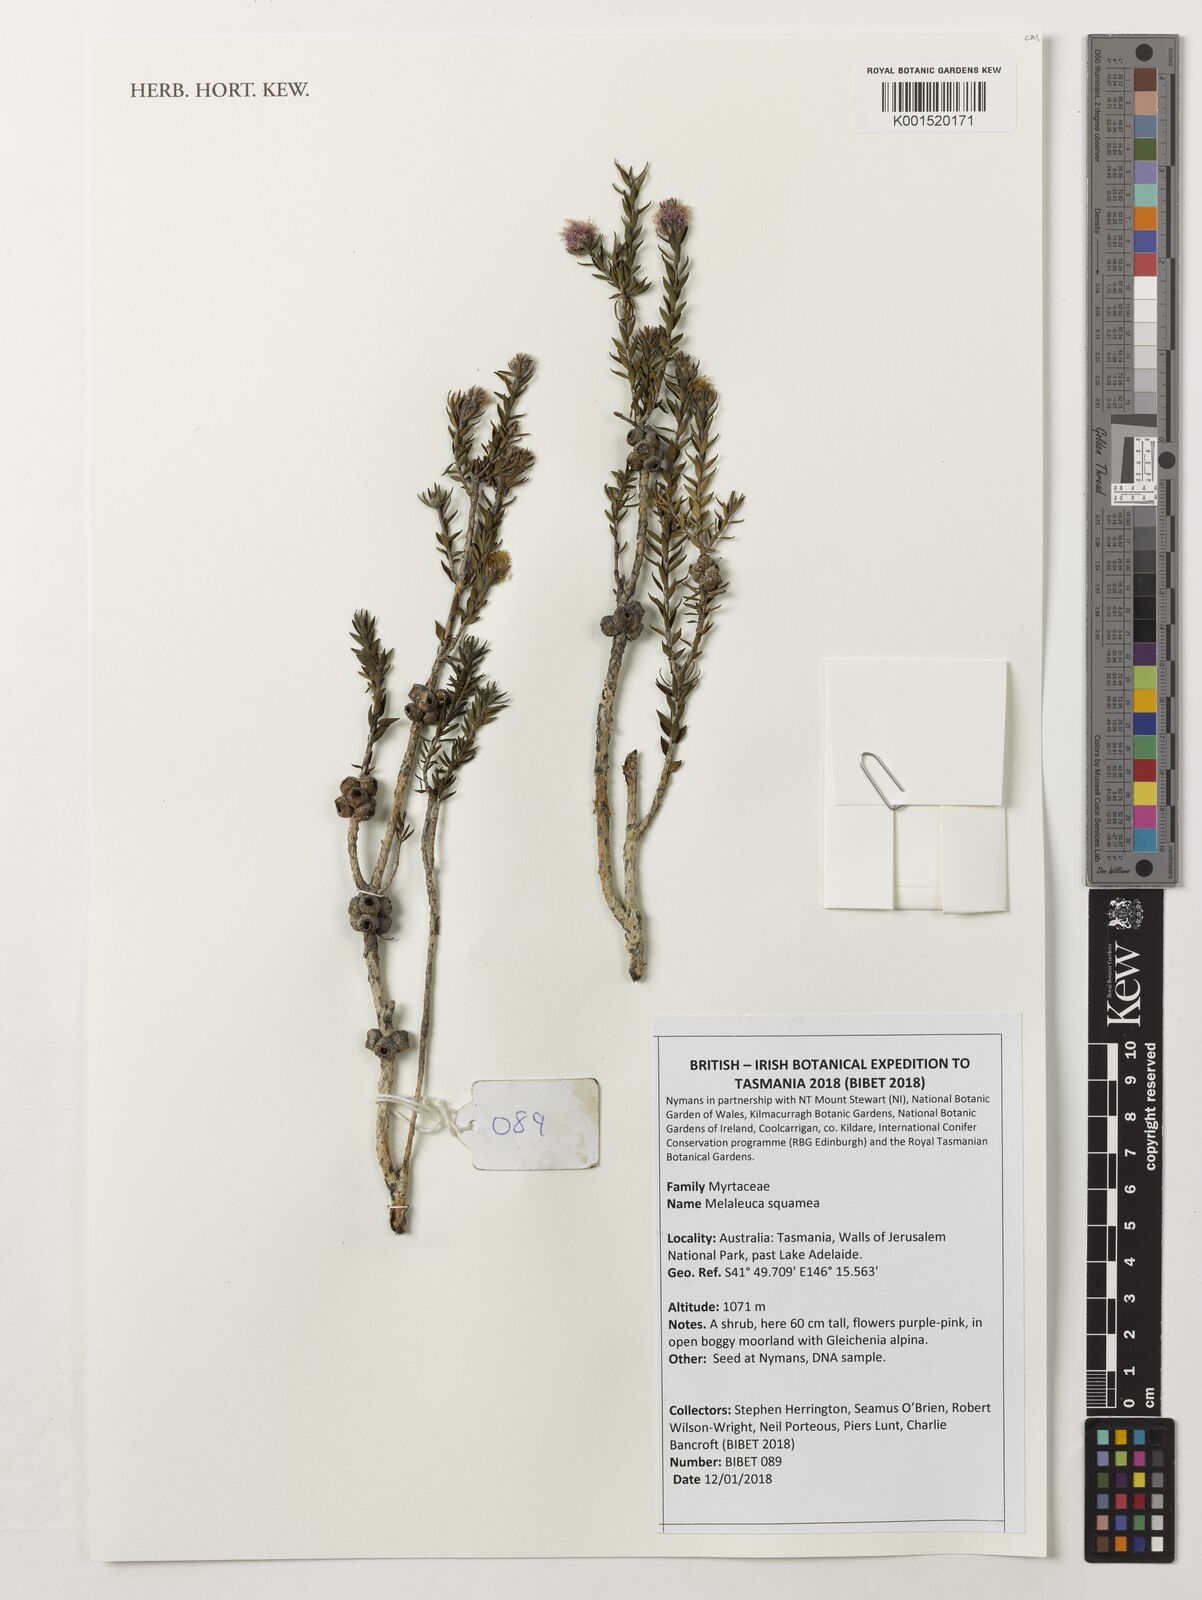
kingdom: Plantae
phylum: Tracheophyta
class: Magnoliopsida
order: Myrtales
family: Myrtaceae
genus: Melaleuca
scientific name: Melaleuca squamea
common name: Swamp melaleuca
